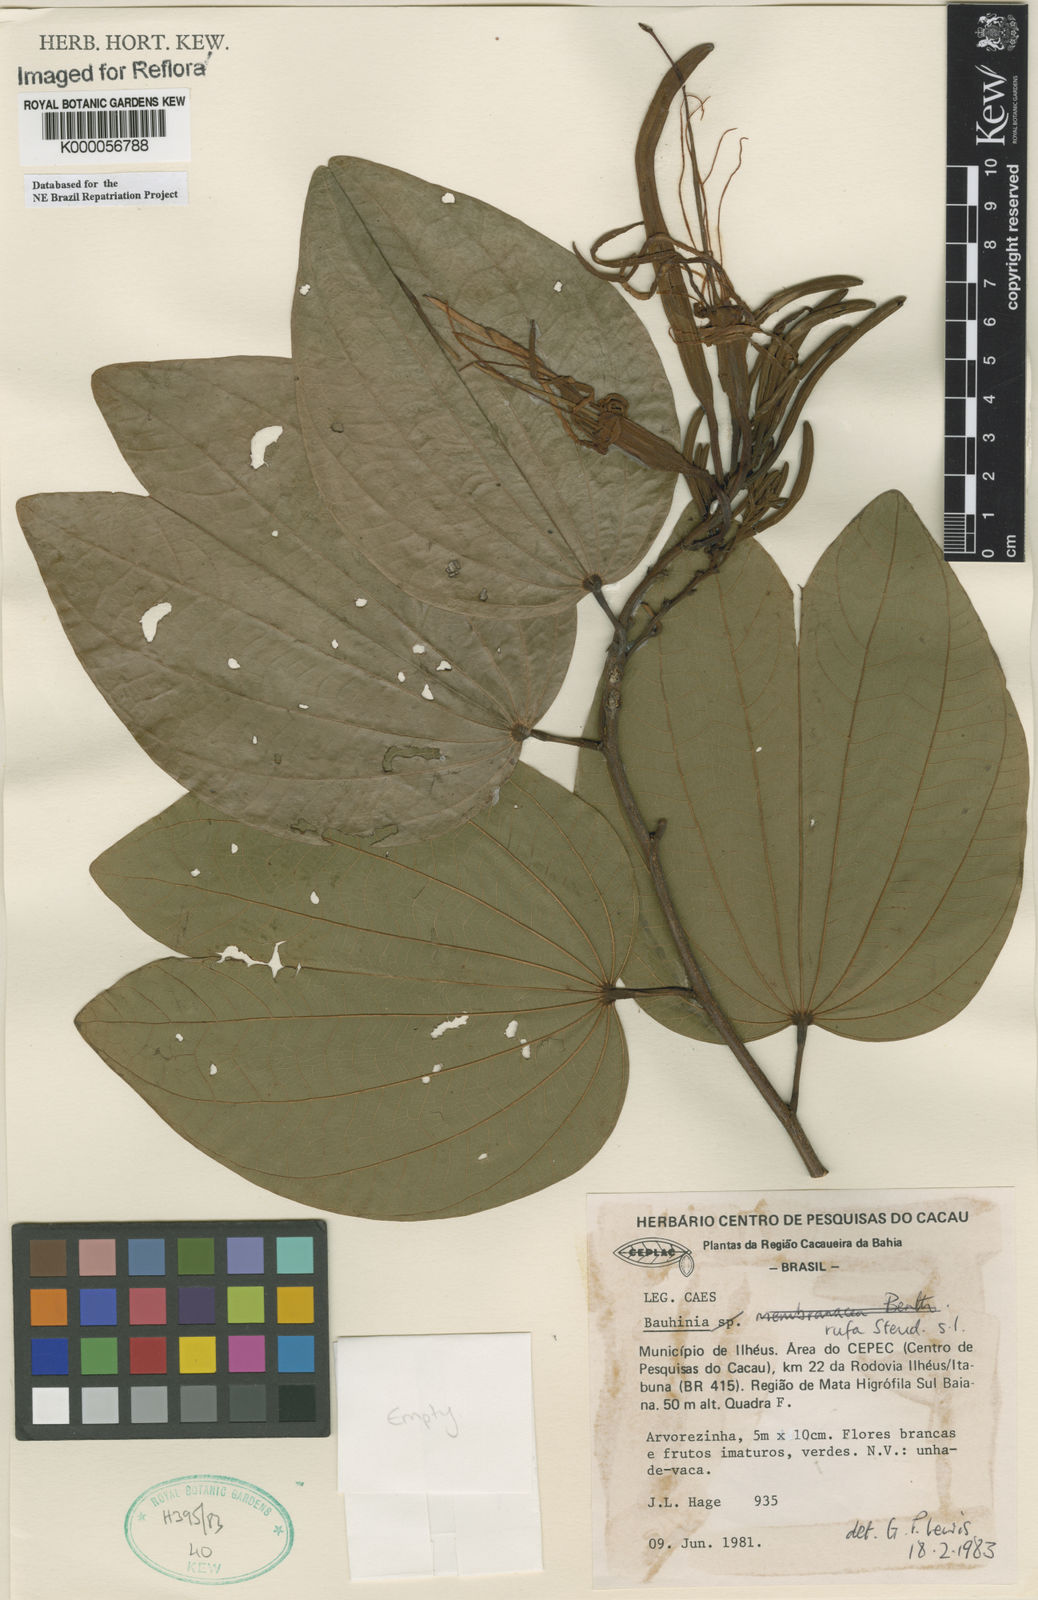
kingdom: Plantae
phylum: Tracheophyta
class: Magnoliopsida
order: Fabales
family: Fabaceae
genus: Bauhinia
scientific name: Bauhinia rufa
